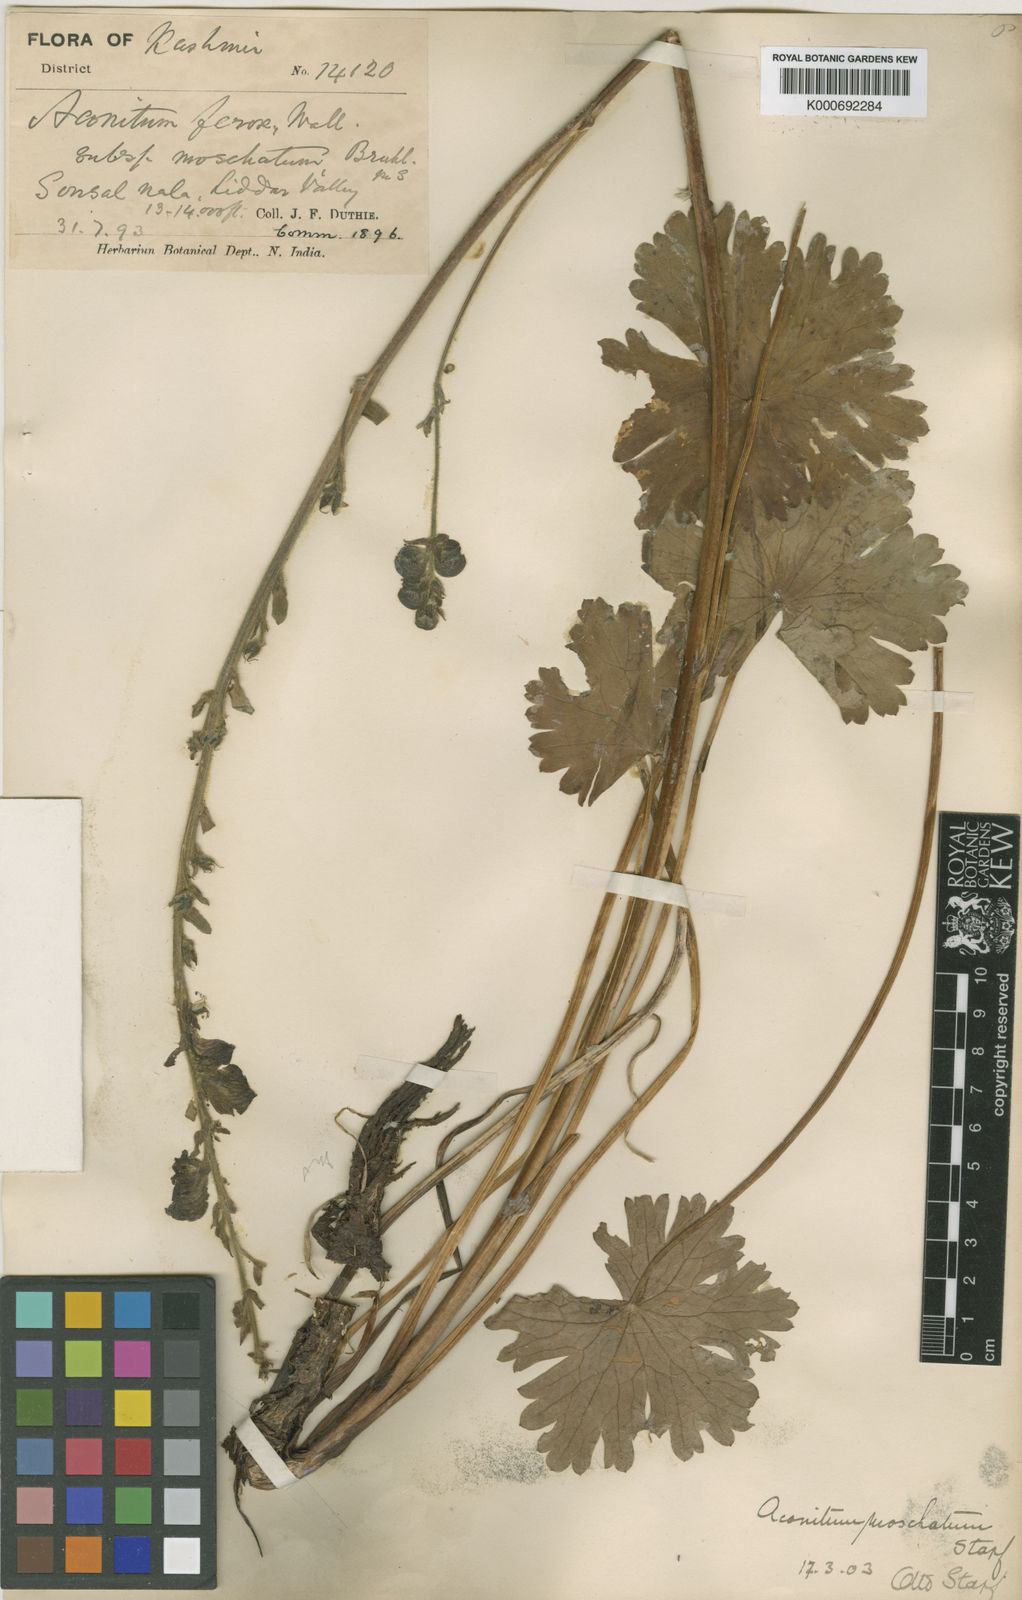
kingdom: Plantae
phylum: Tracheophyta
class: Magnoliopsida
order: Ranunculales
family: Ranunculaceae
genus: Aconitum
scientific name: Aconitum moschatum
